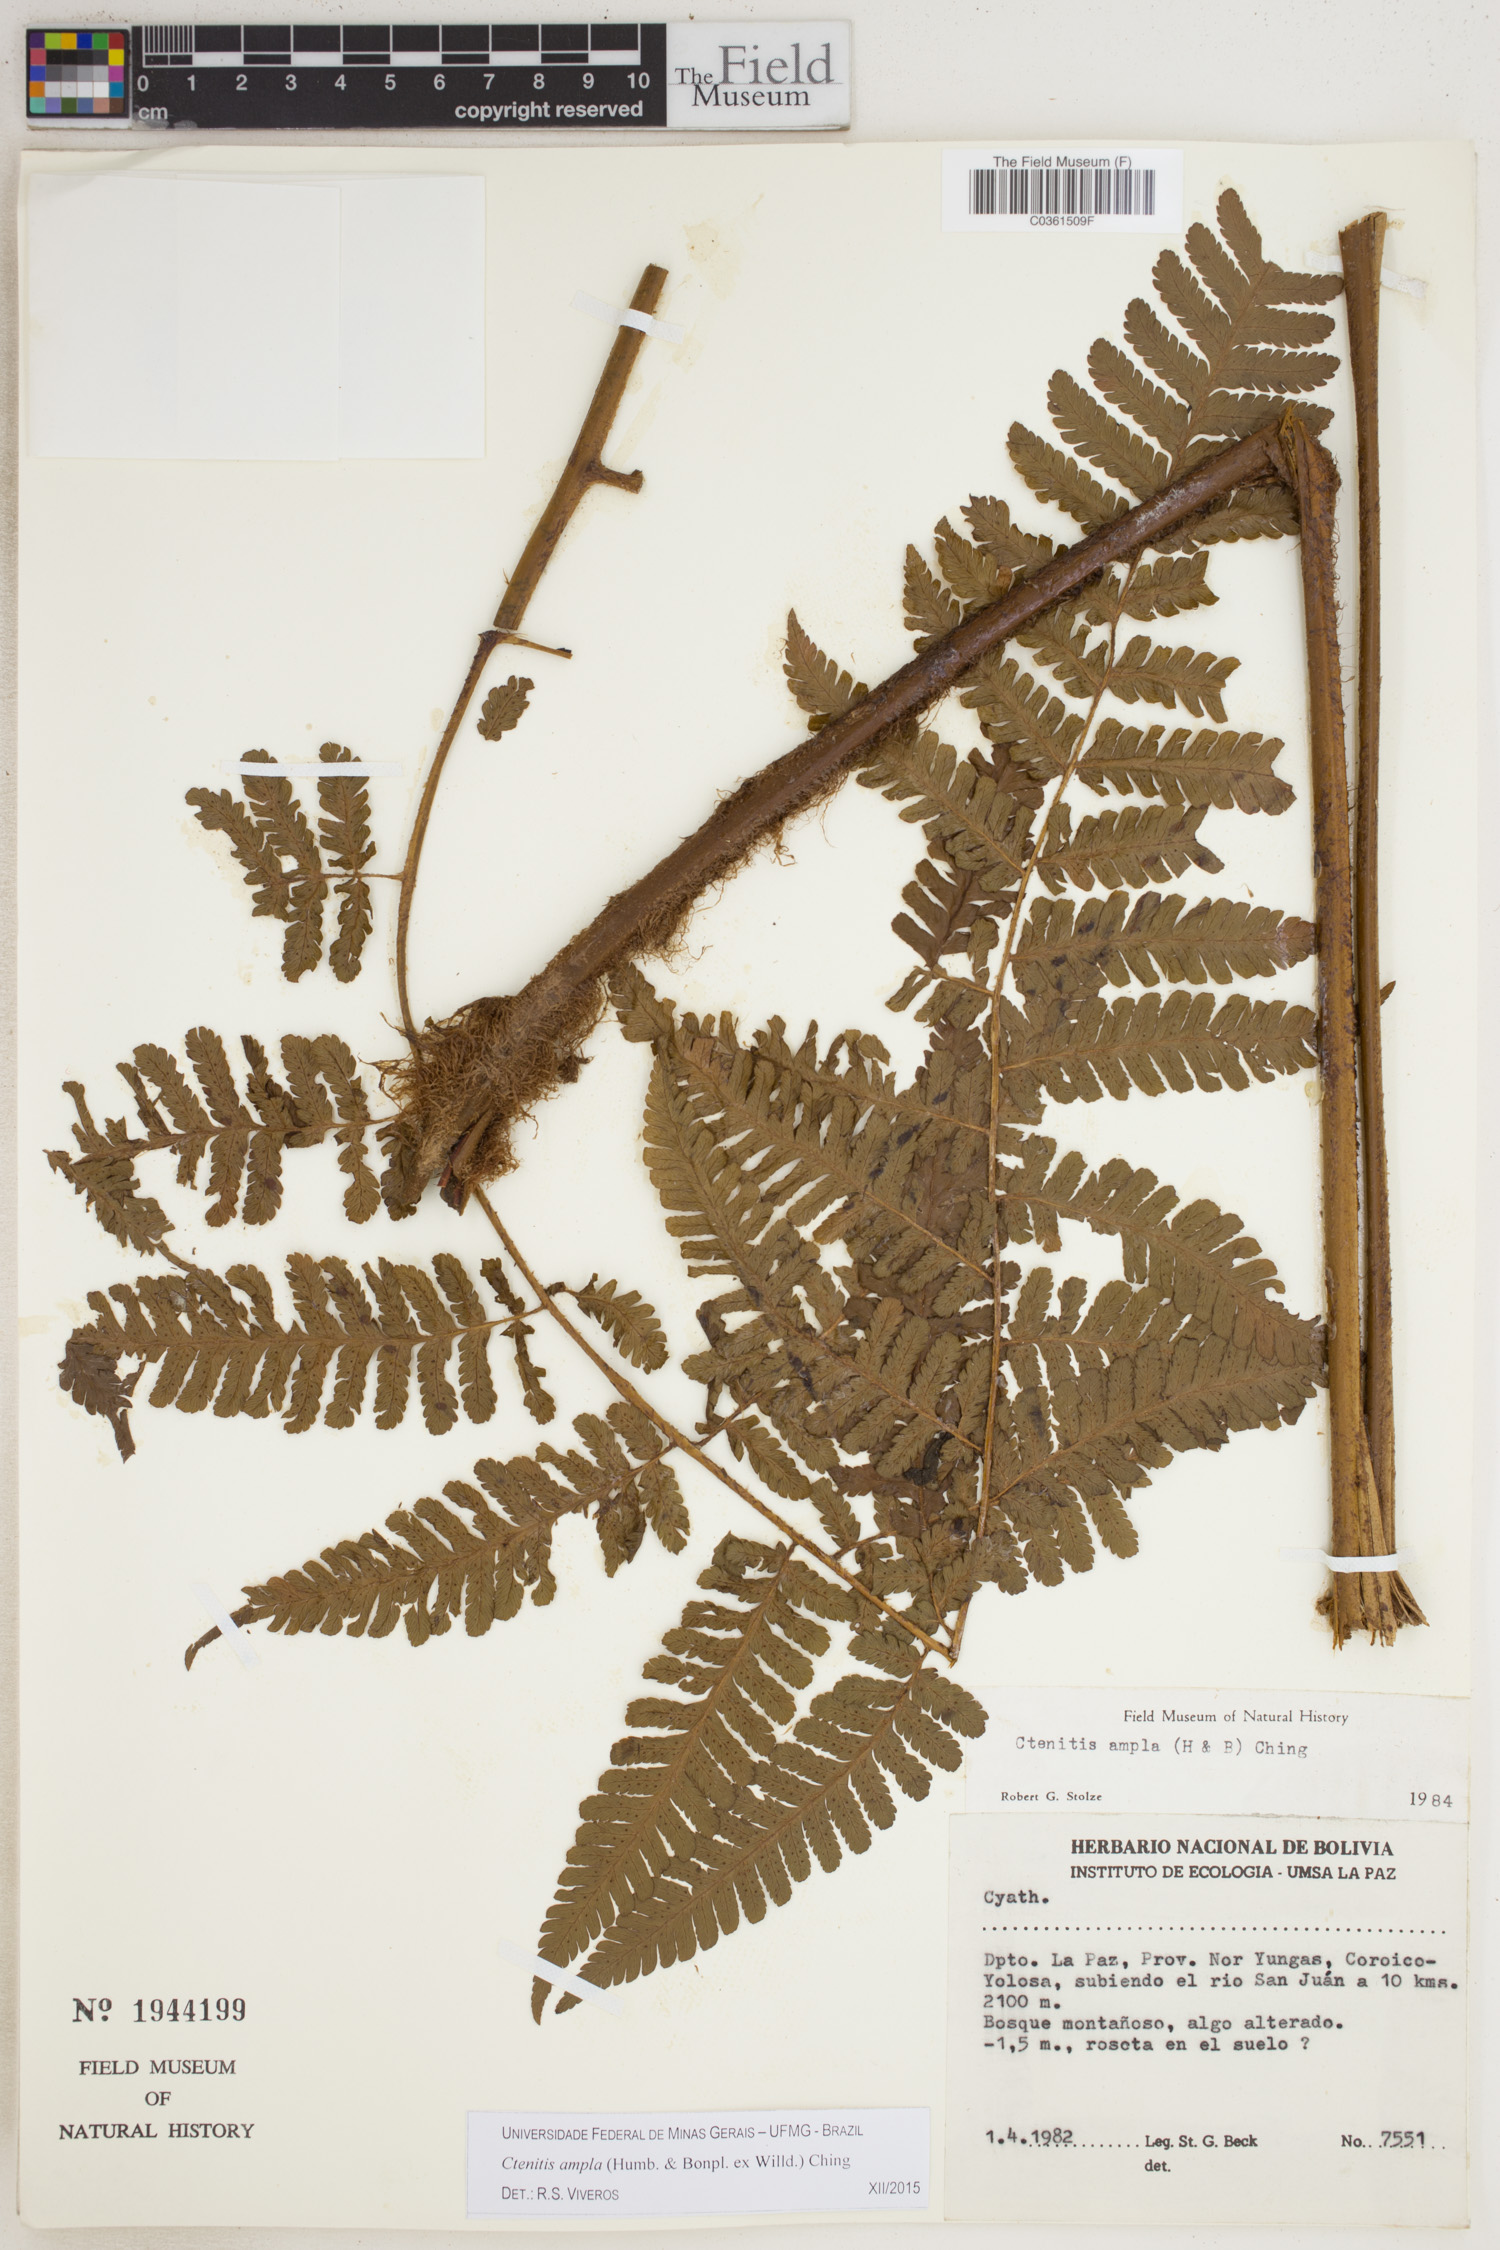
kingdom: Plantae
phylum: Tracheophyta
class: Polypodiopsida
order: Polypodiales
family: Dryopteridaceae
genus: Ctenitis
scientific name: Ctenitis sloanei
